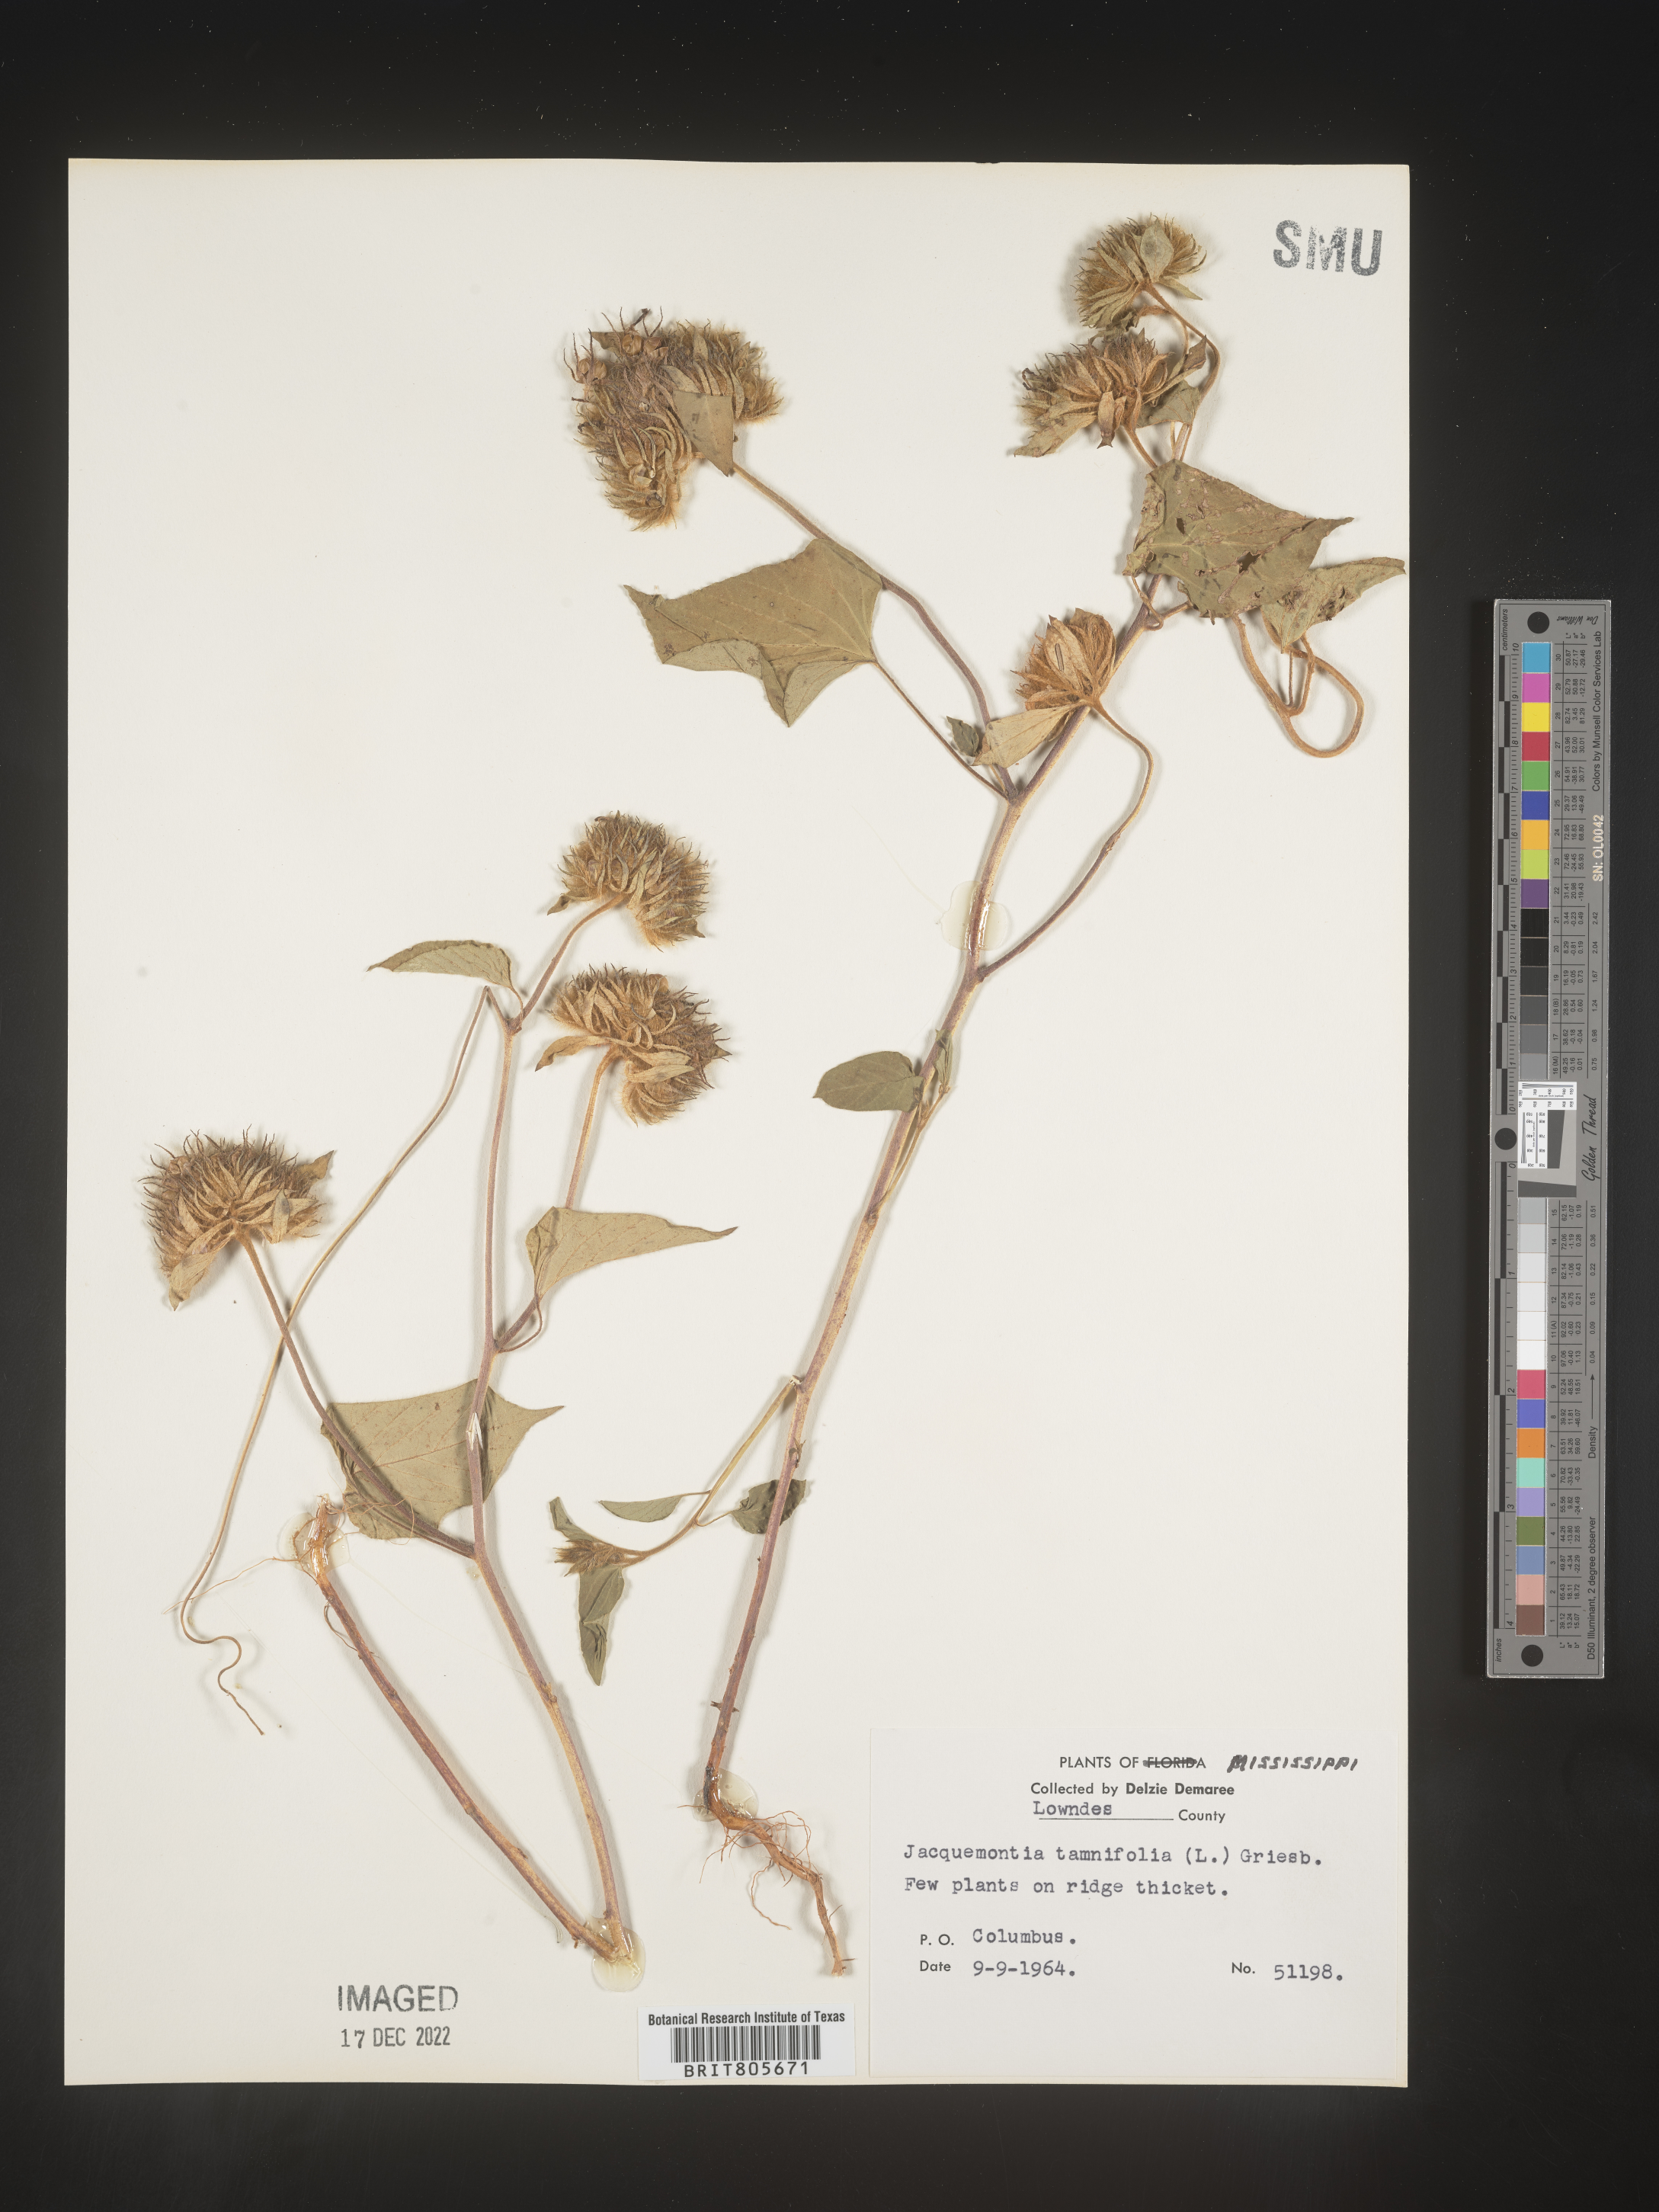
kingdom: Plantae
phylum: Tracheophyta
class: Magnoliopsida
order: Solanales
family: Convolvulaceae
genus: Jacquemontia
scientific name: Jacquemontia tamnifolia
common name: Hairy clustervine
